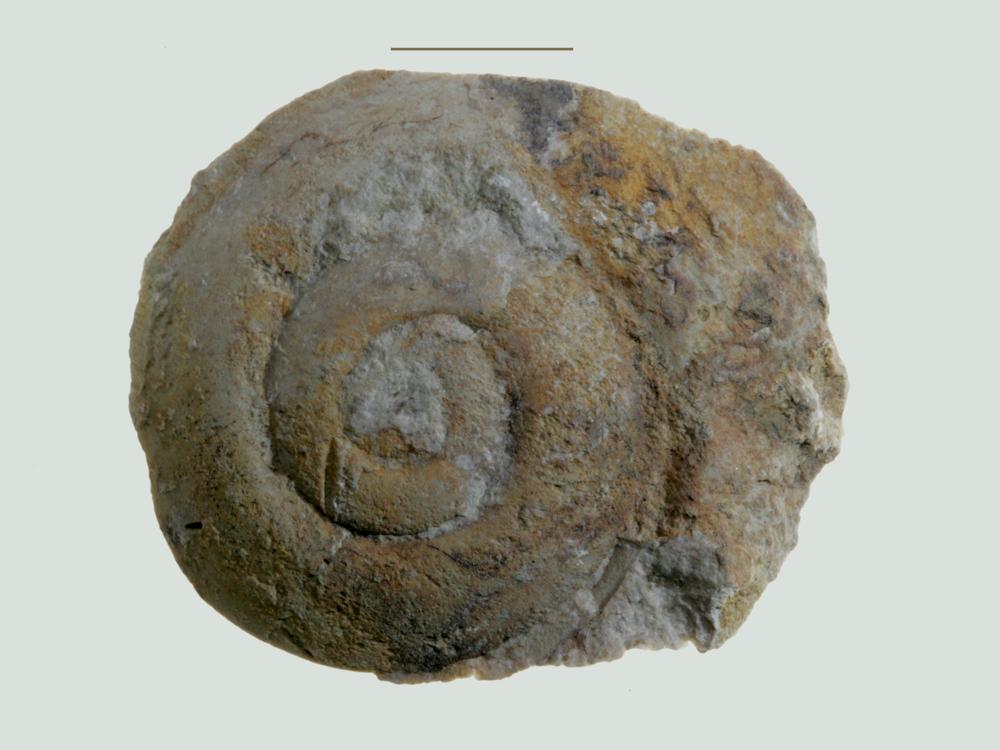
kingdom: Animalia
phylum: Mollusca
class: Gastropoda
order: Pleurotomariida
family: Eotomariidae
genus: Liospira
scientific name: Liospira Raphistoma wesenbergense
